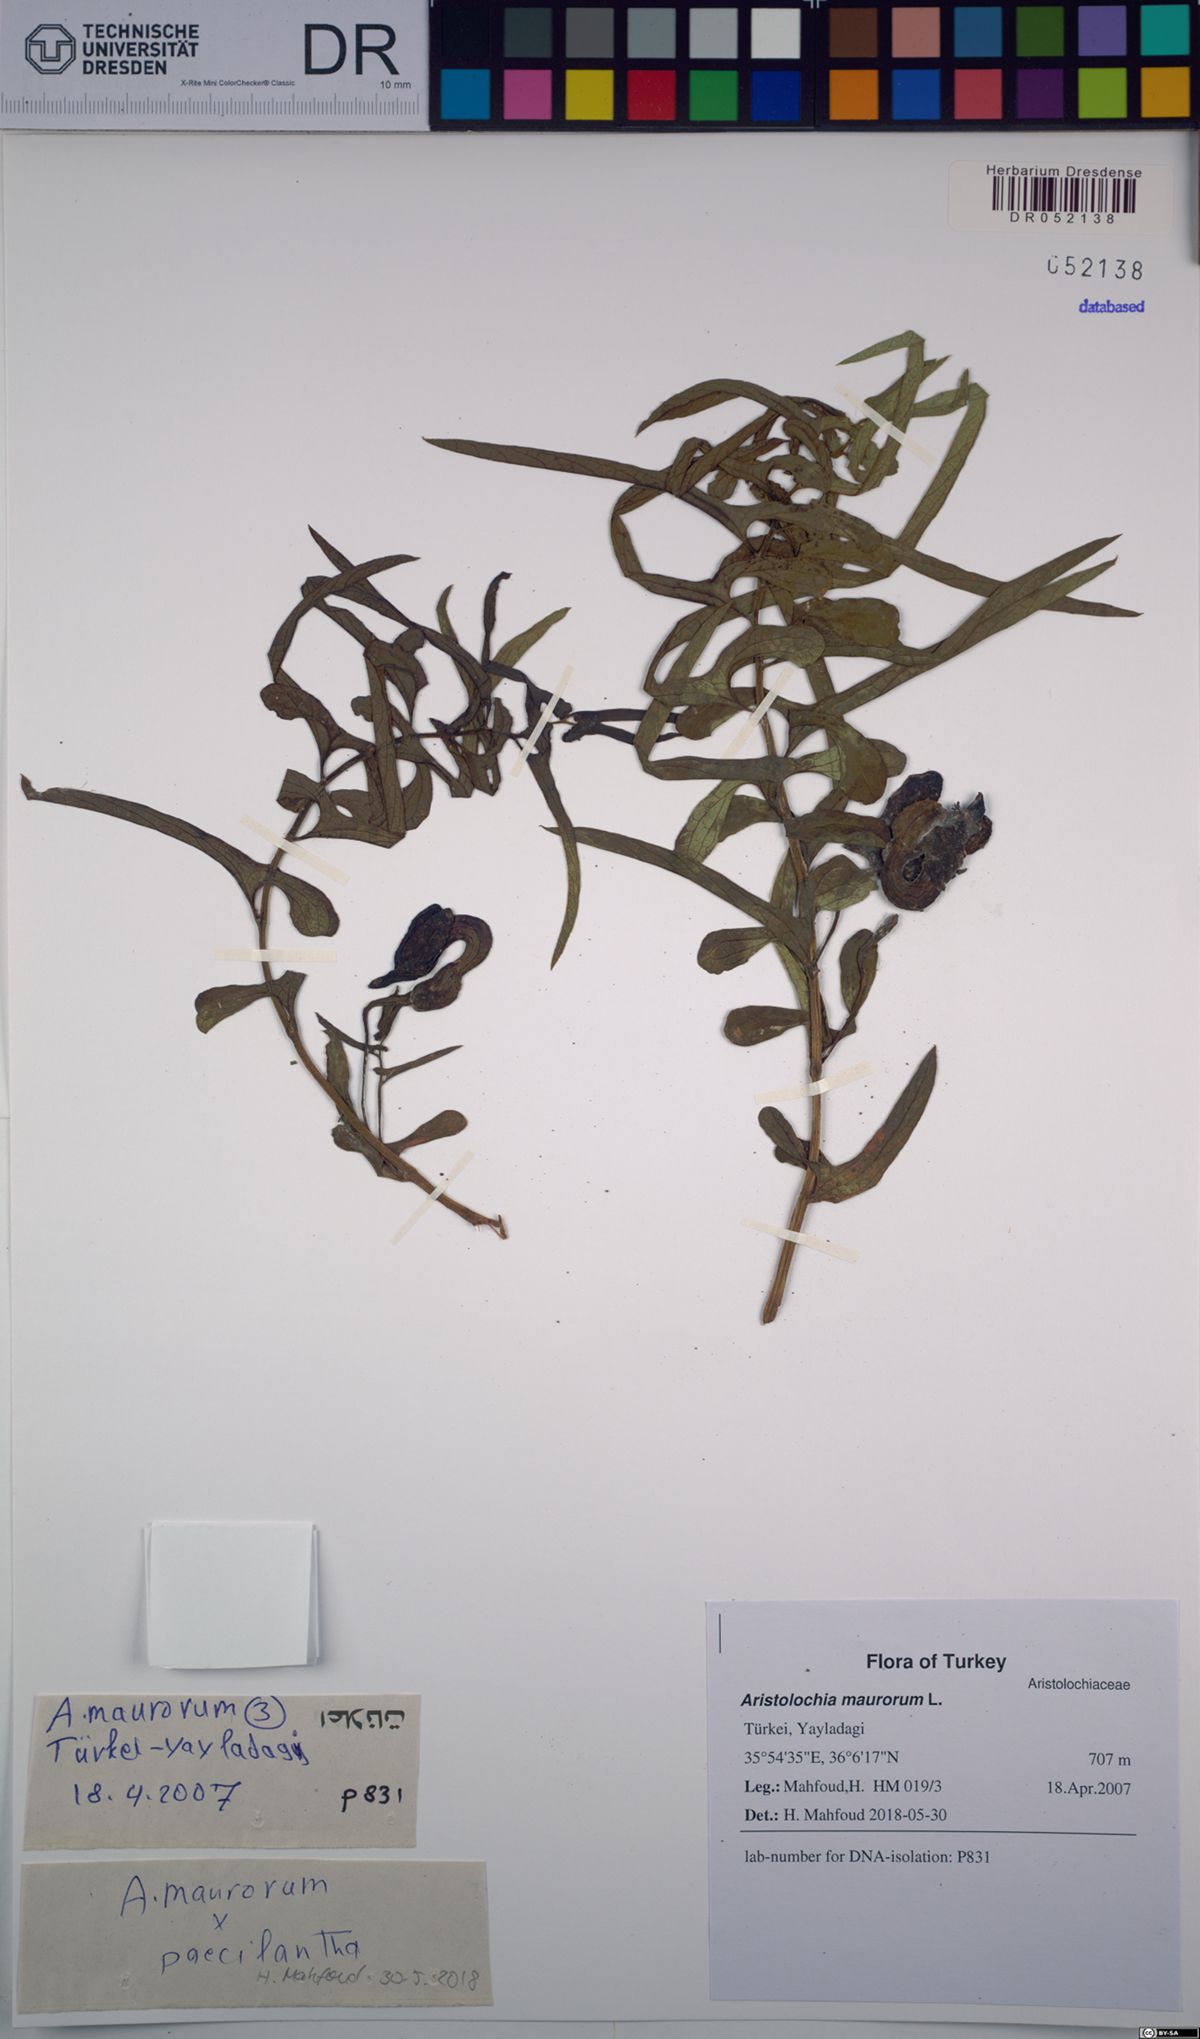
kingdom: Plantae
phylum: Tracheophyta
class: Magnoliopsida
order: Piperales
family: Aristolochiaceae
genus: Aristolochia
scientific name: Aristolochia maurorum
